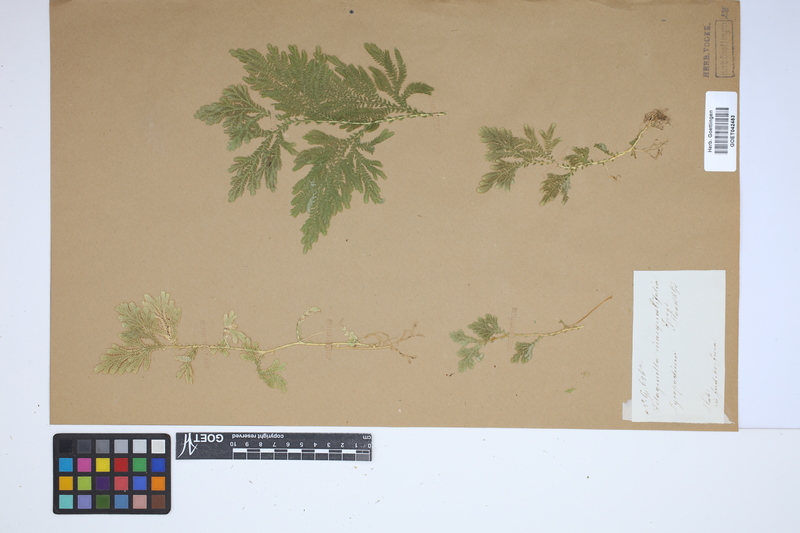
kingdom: Plantae
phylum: Tracheophyta
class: Lycopodiopsida
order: Selaginellales
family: Selaginellaceae
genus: Selaginella
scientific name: Selaginella inaequalifolia
